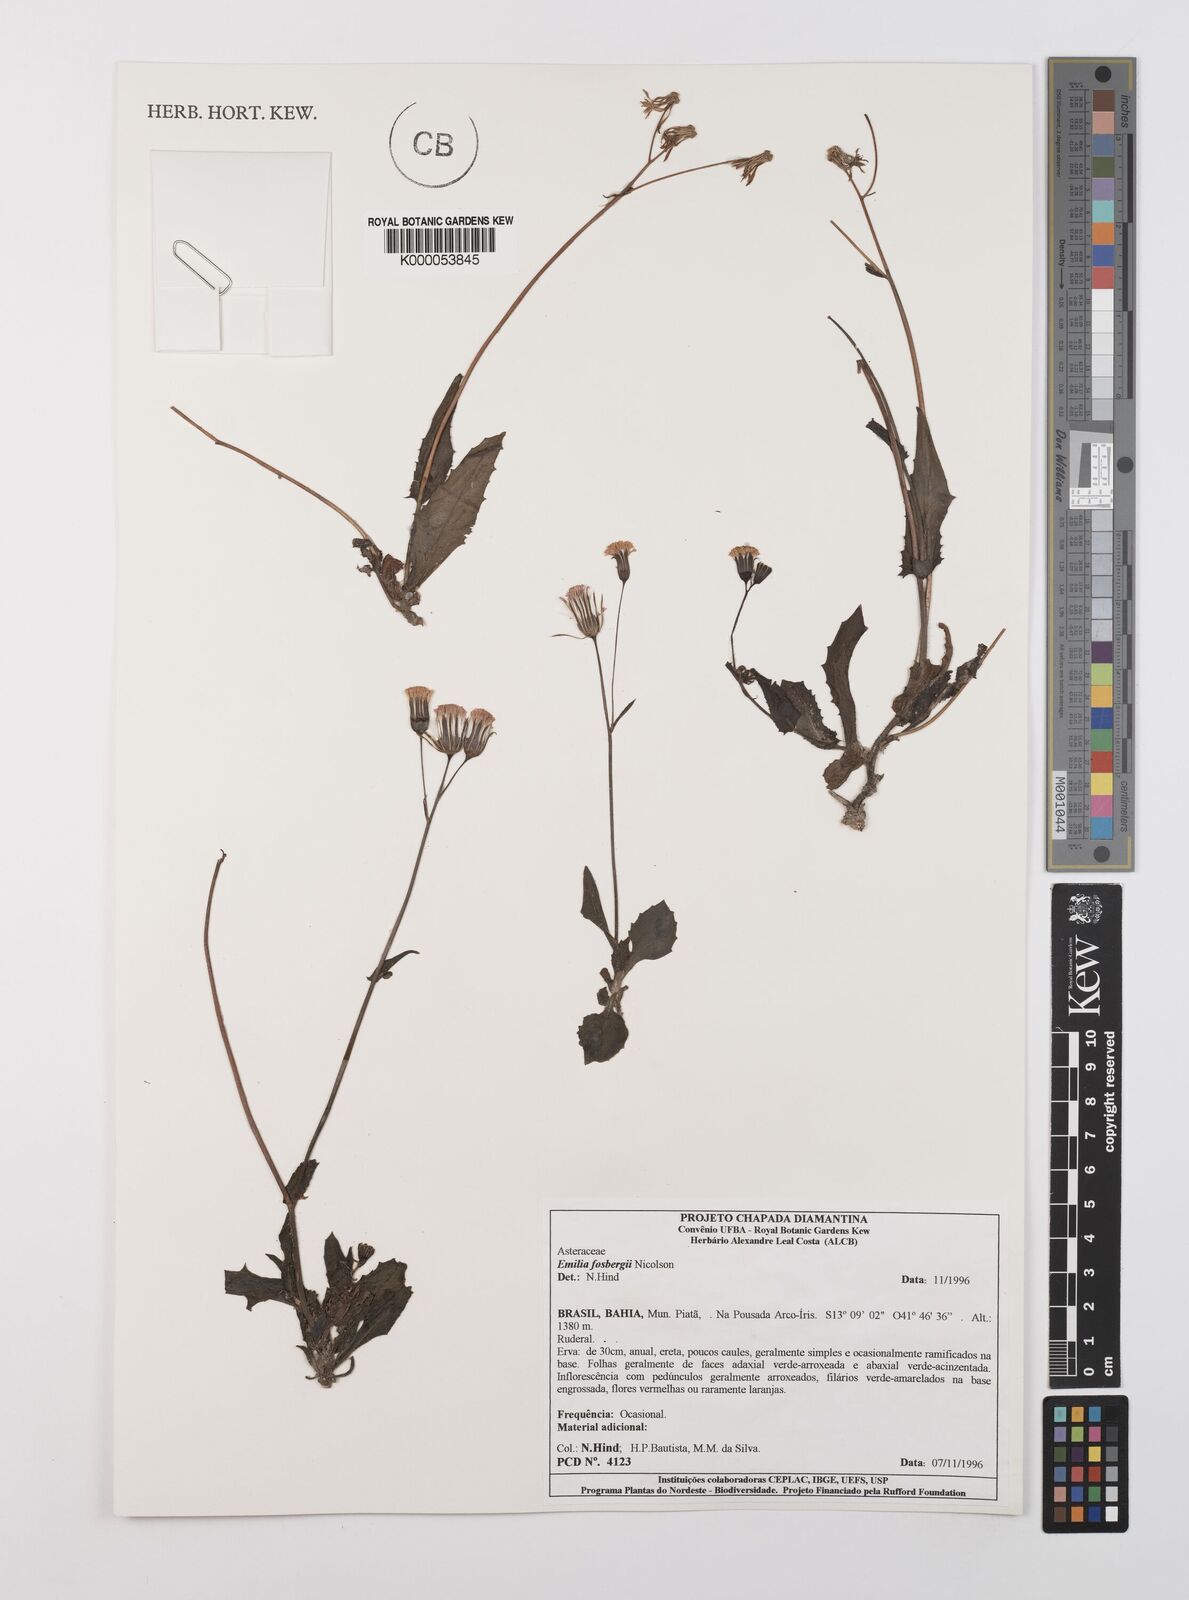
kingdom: Plantae
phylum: Tracheophyta
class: Magnoliopsida
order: Asterales
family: Asteraceae
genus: Emilia
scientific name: Emilia fosbergii
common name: Florida tasselflower
